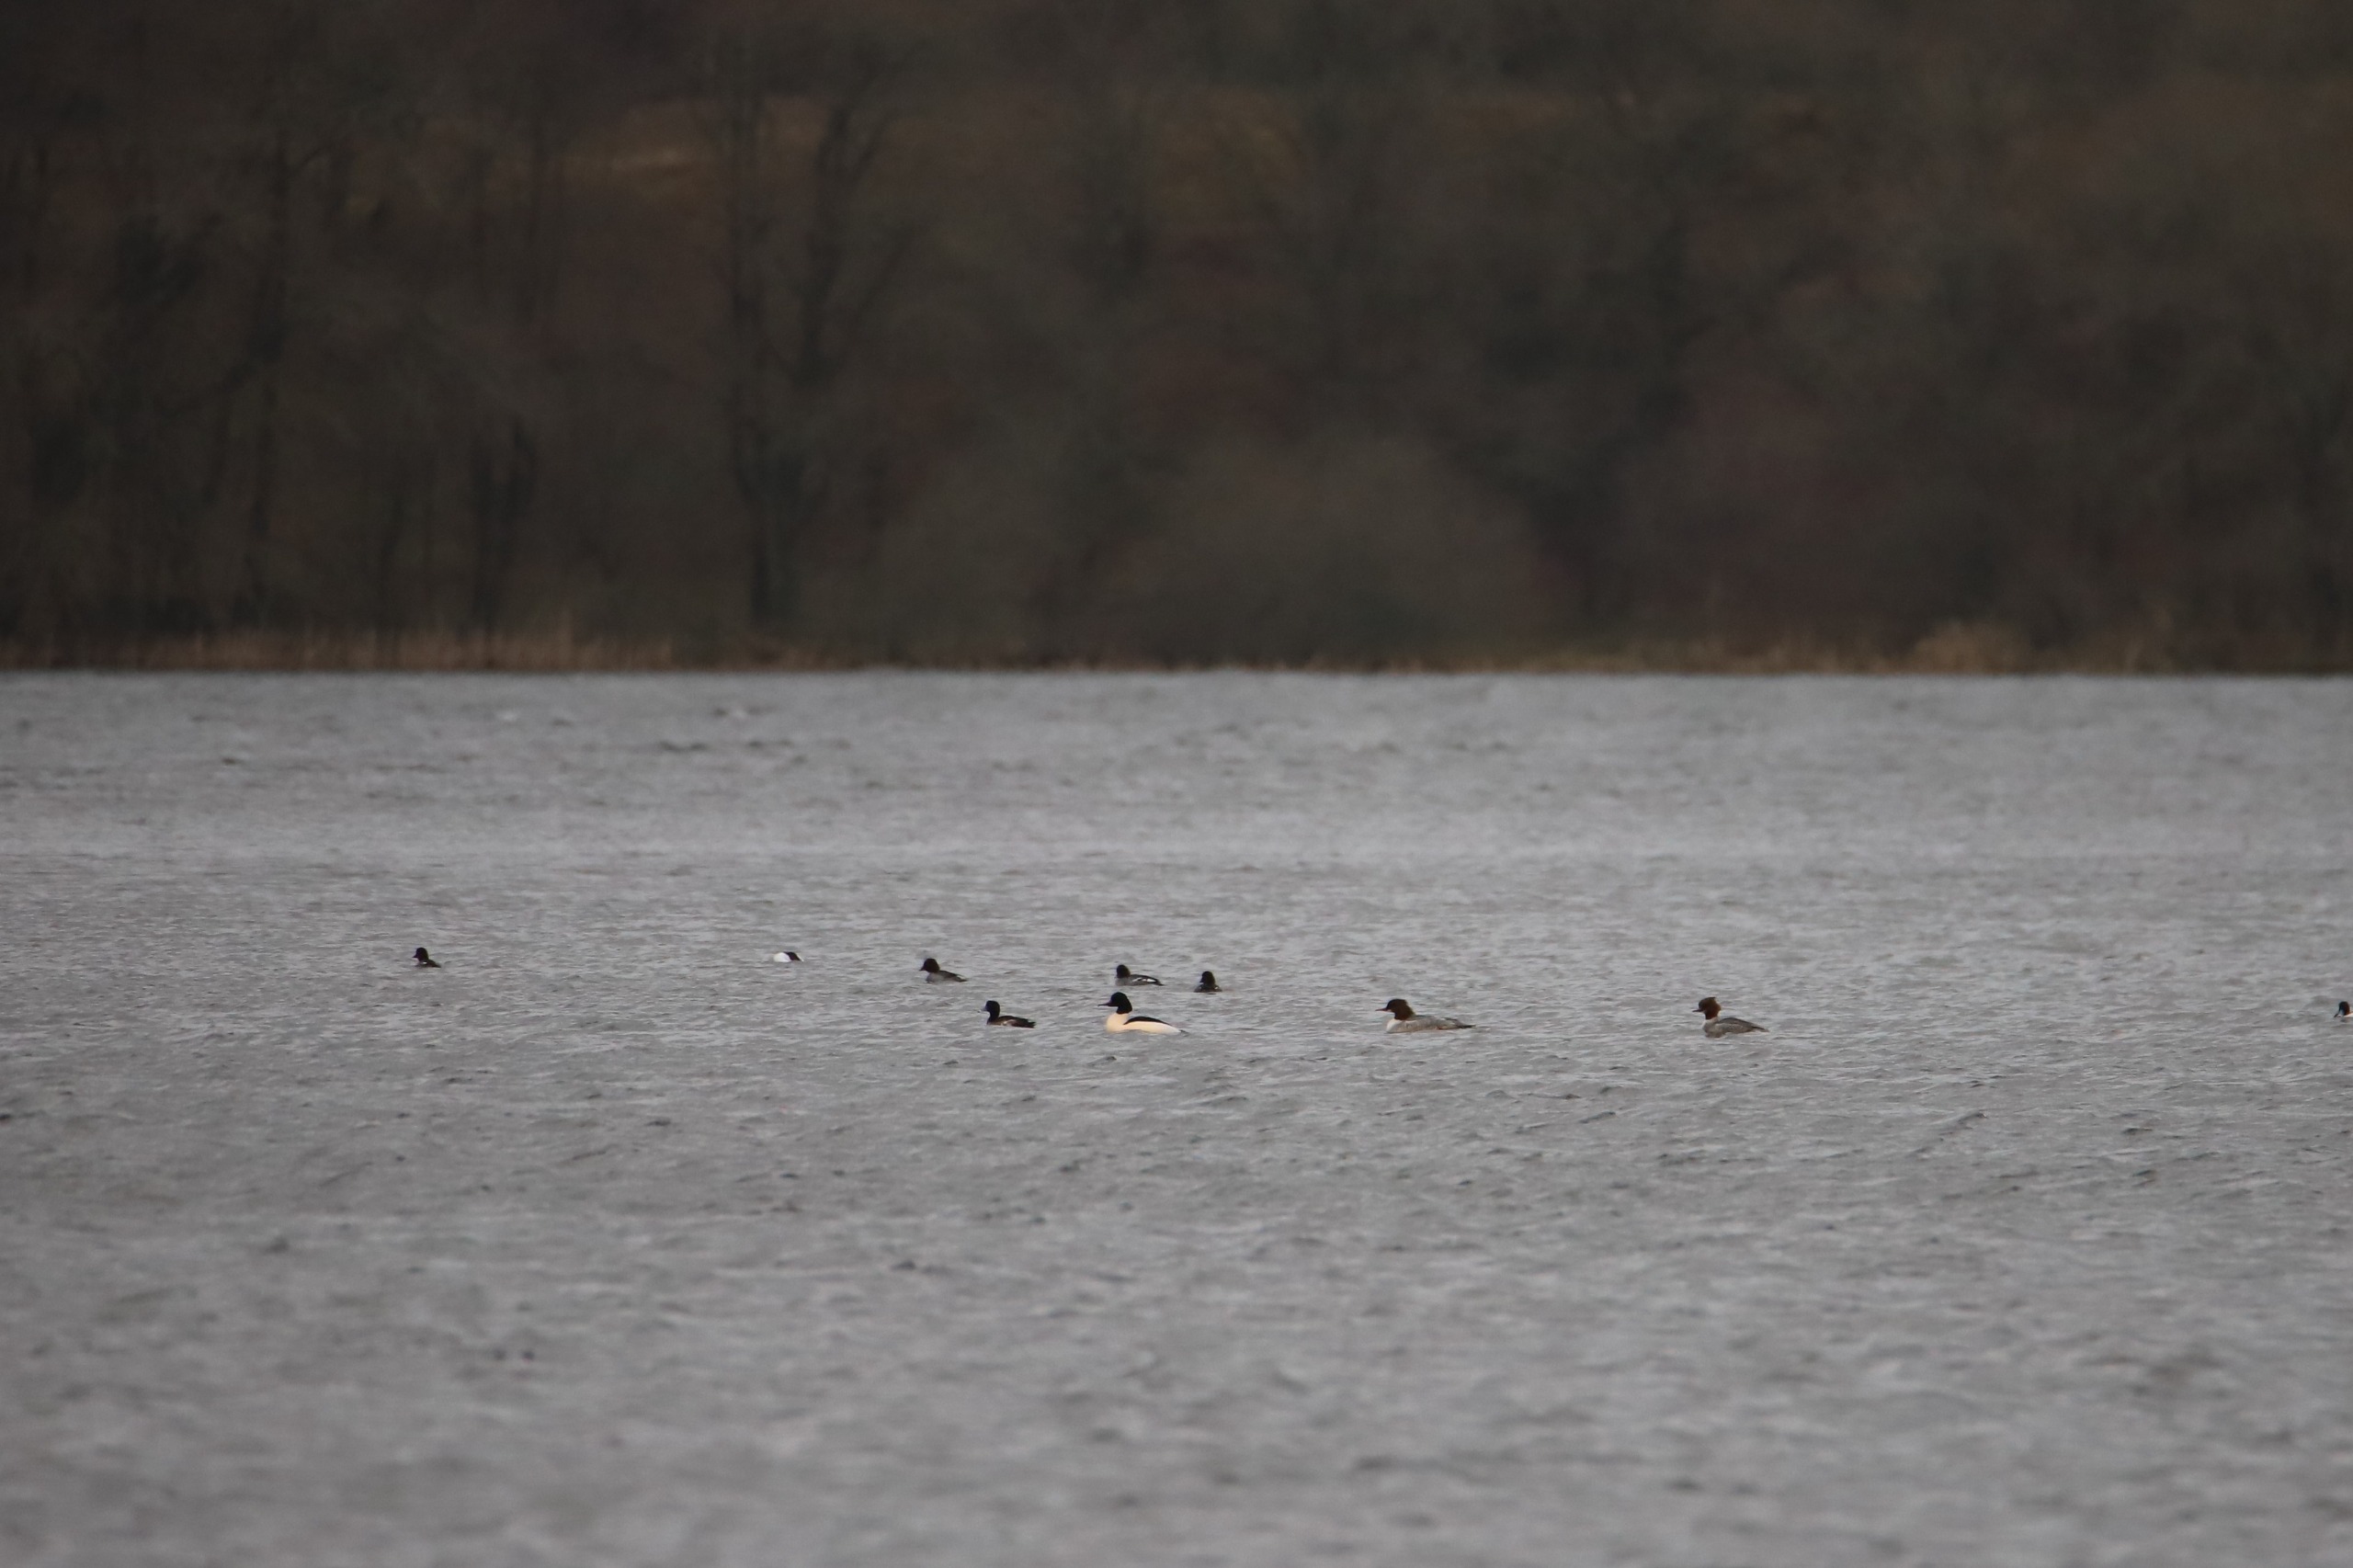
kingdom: Animalia
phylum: Chordata
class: Aves
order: Anseriformes
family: Anatidae
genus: Mergus
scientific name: Mergus merganser
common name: Stor skallesluger
